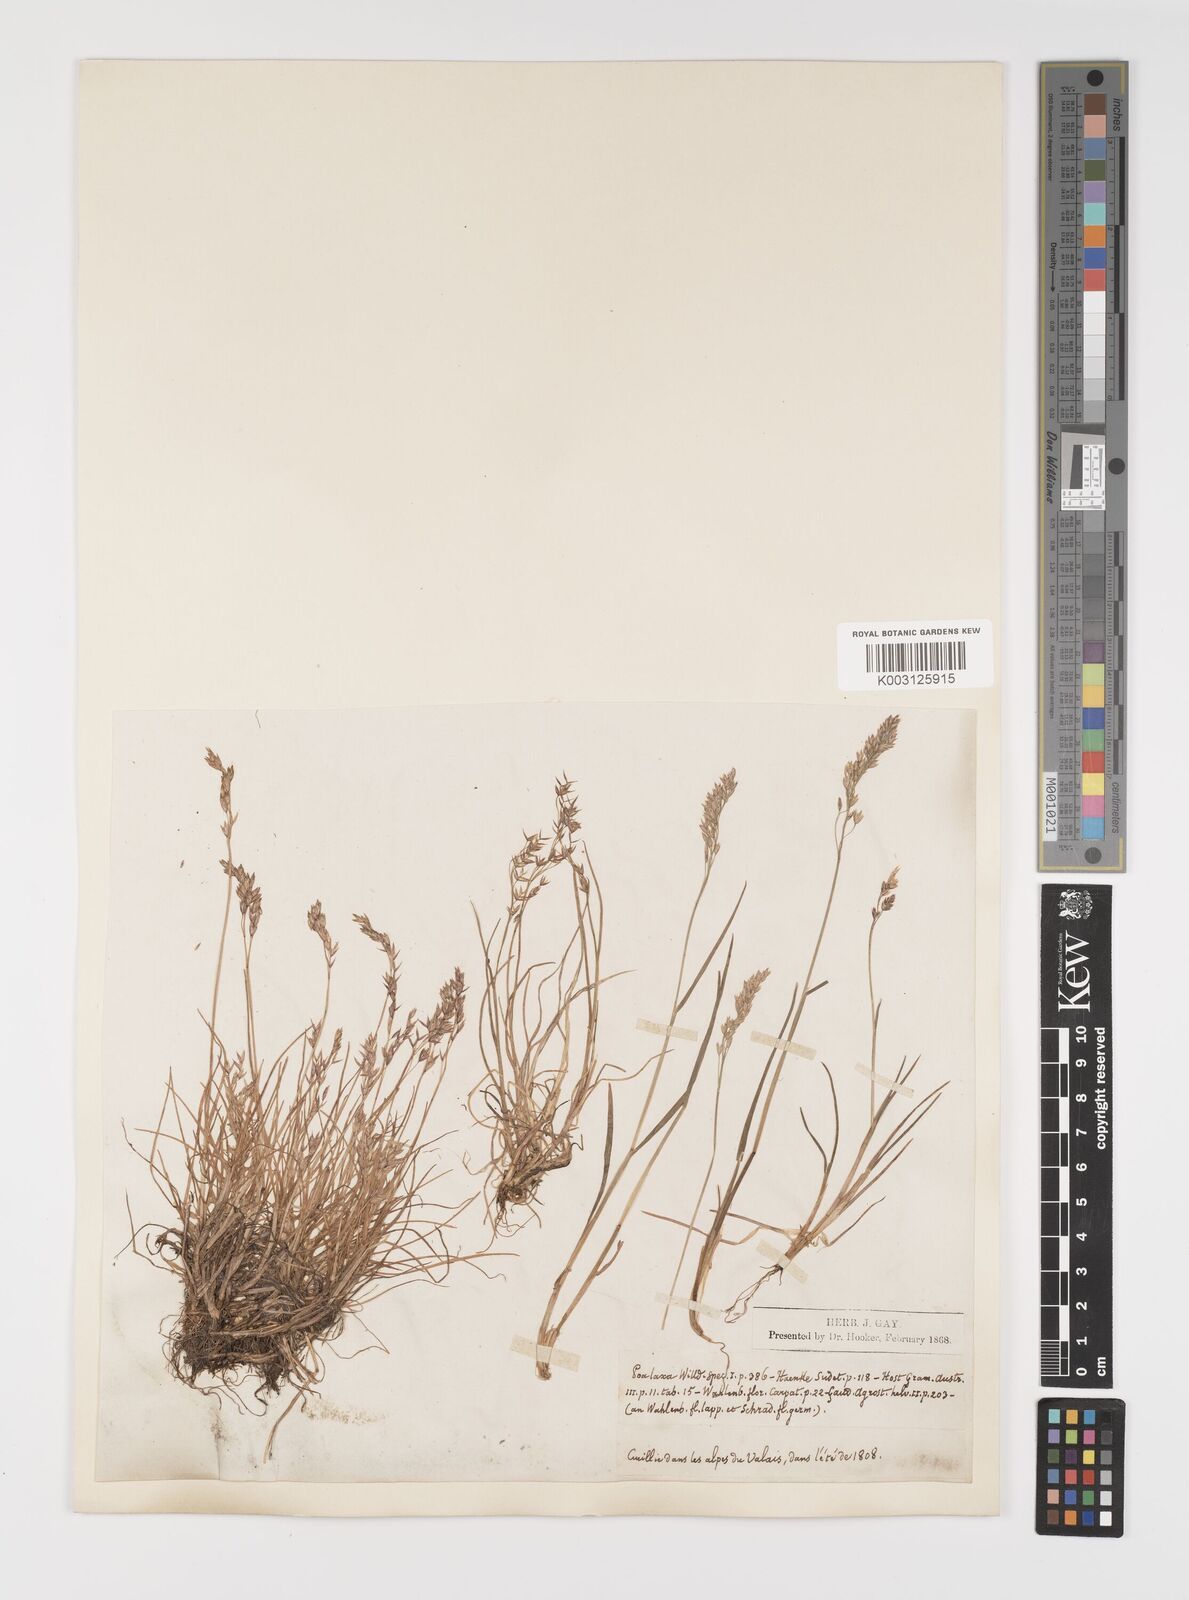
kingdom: Plantae
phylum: Tracheophyta
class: Liliopsida
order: Poales
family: Poaceae
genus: Poa
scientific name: Poa laxa
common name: Lax bluegrass
